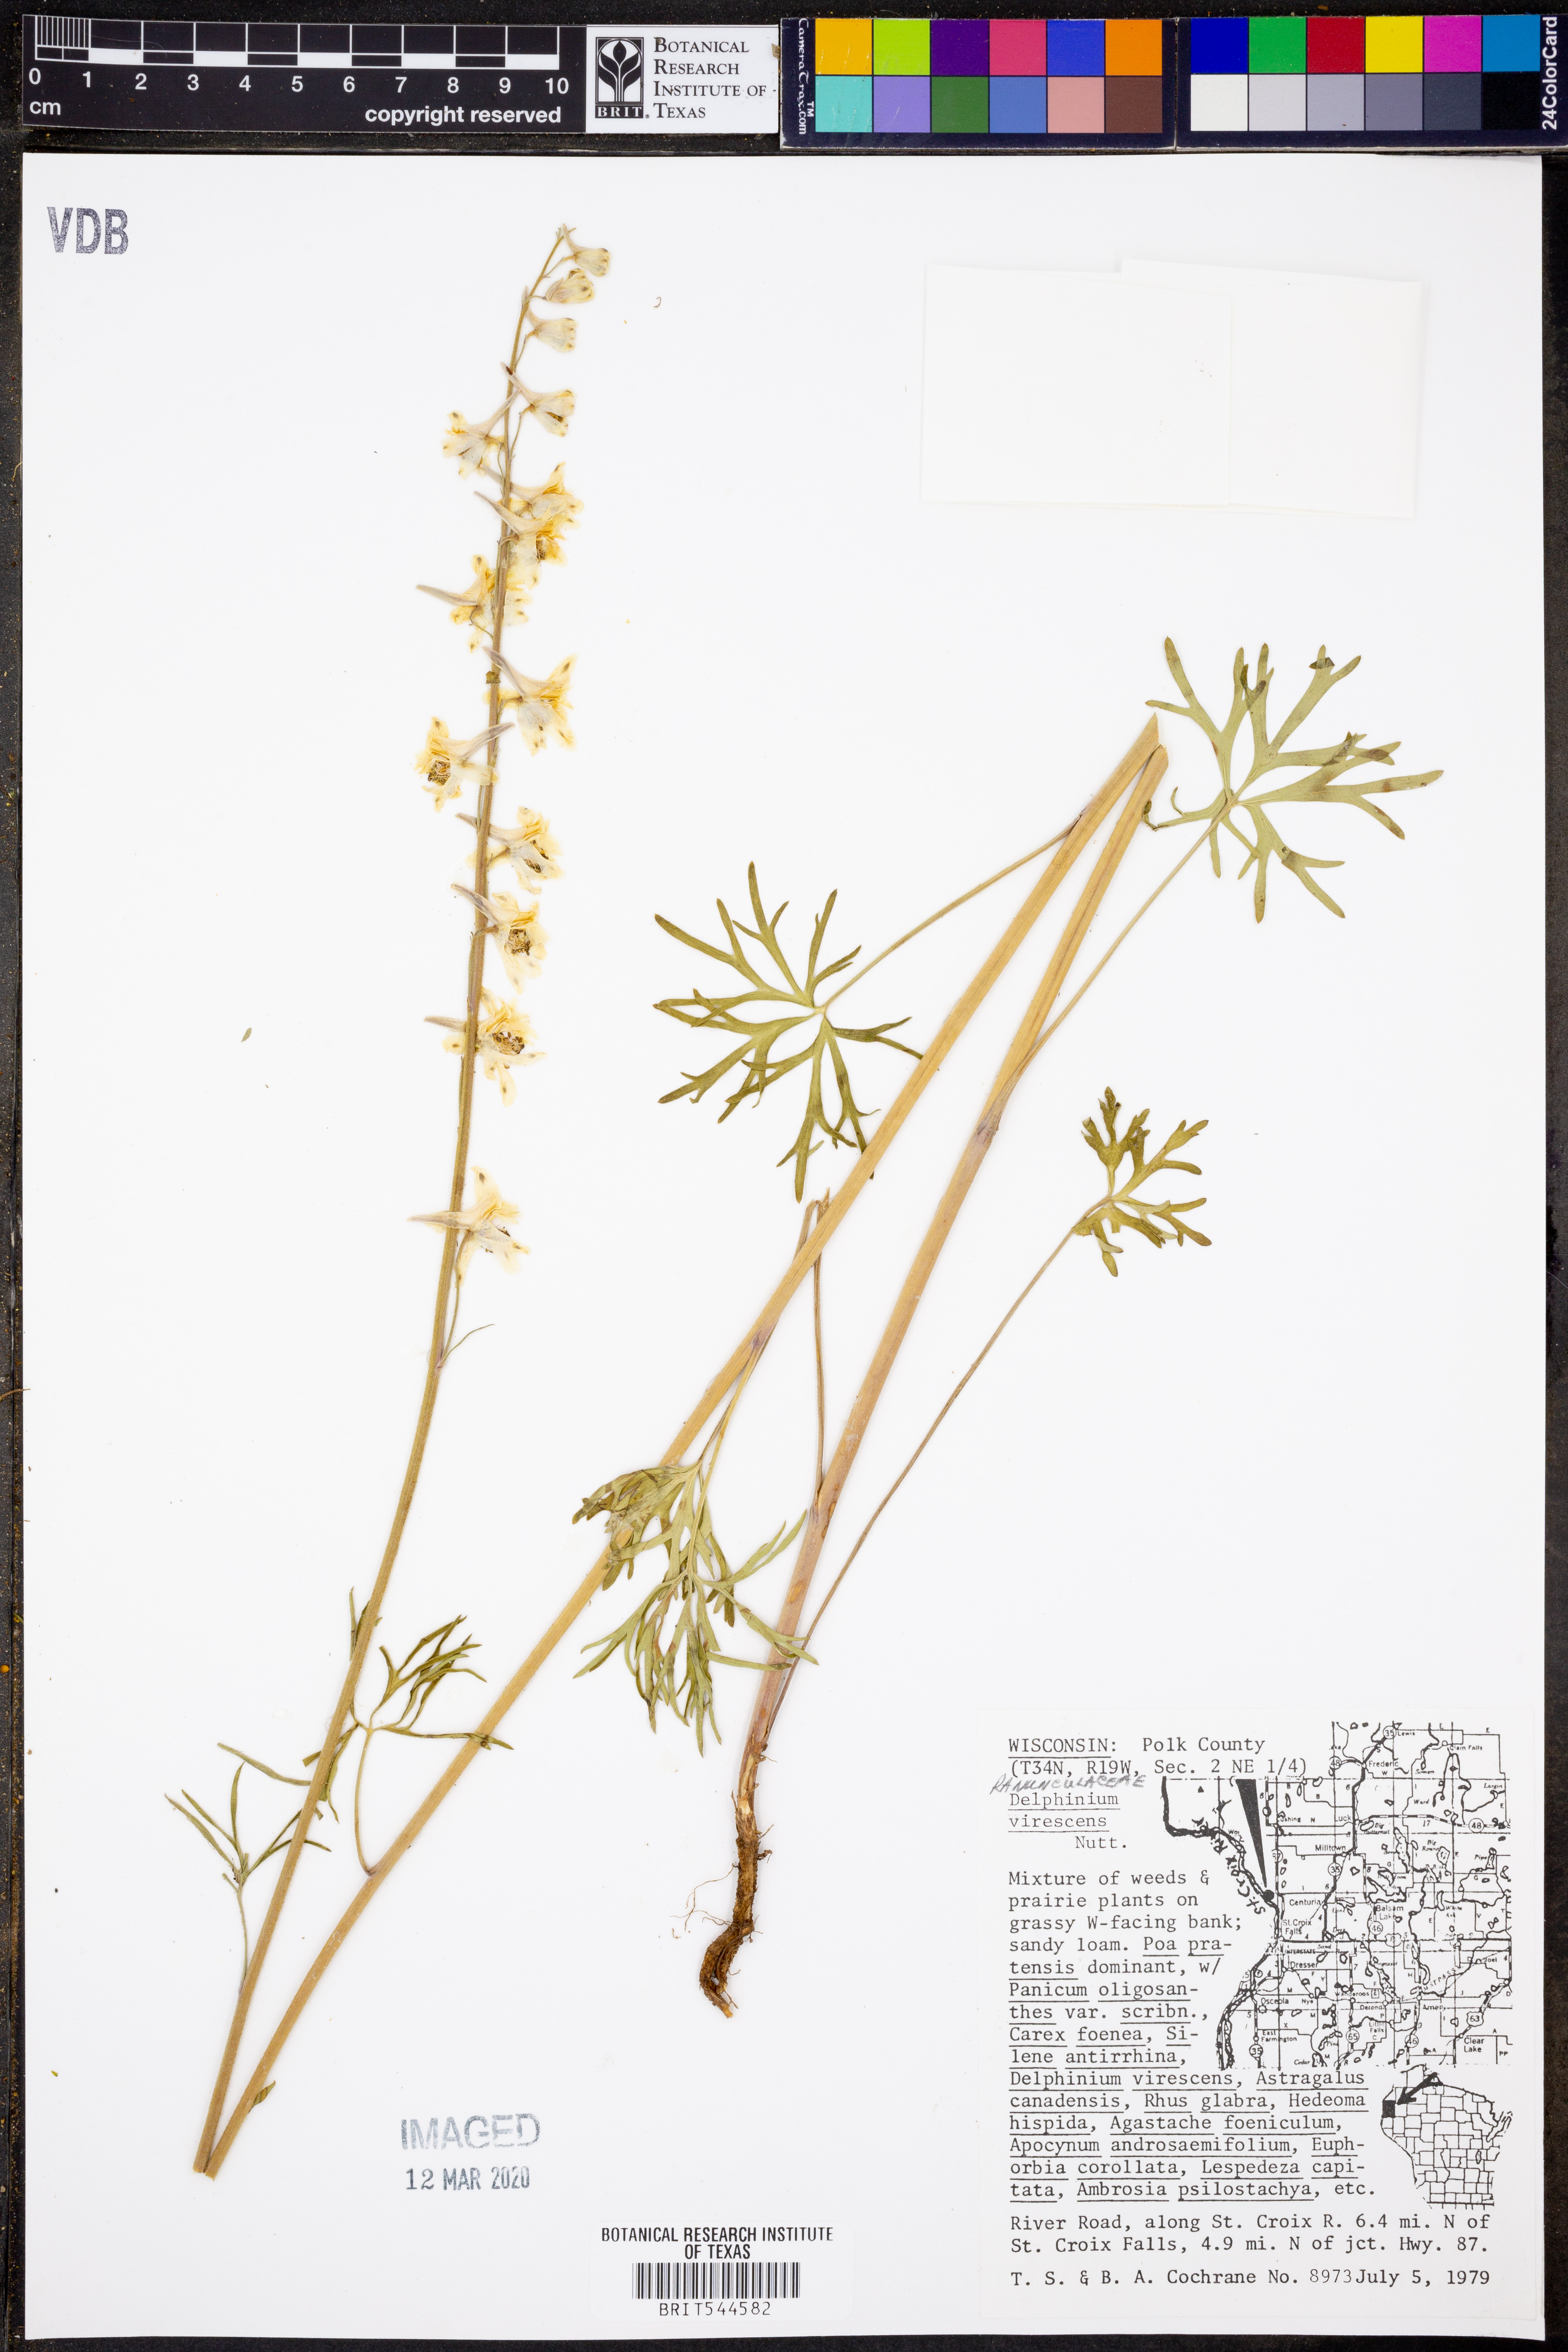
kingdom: Plantae
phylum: Tracheophyta
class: Magnoliopsida
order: Ranunculales
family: Ranunculaceae
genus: Delphinium
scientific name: Delphinium carolinianum
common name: Carolina larkspur
